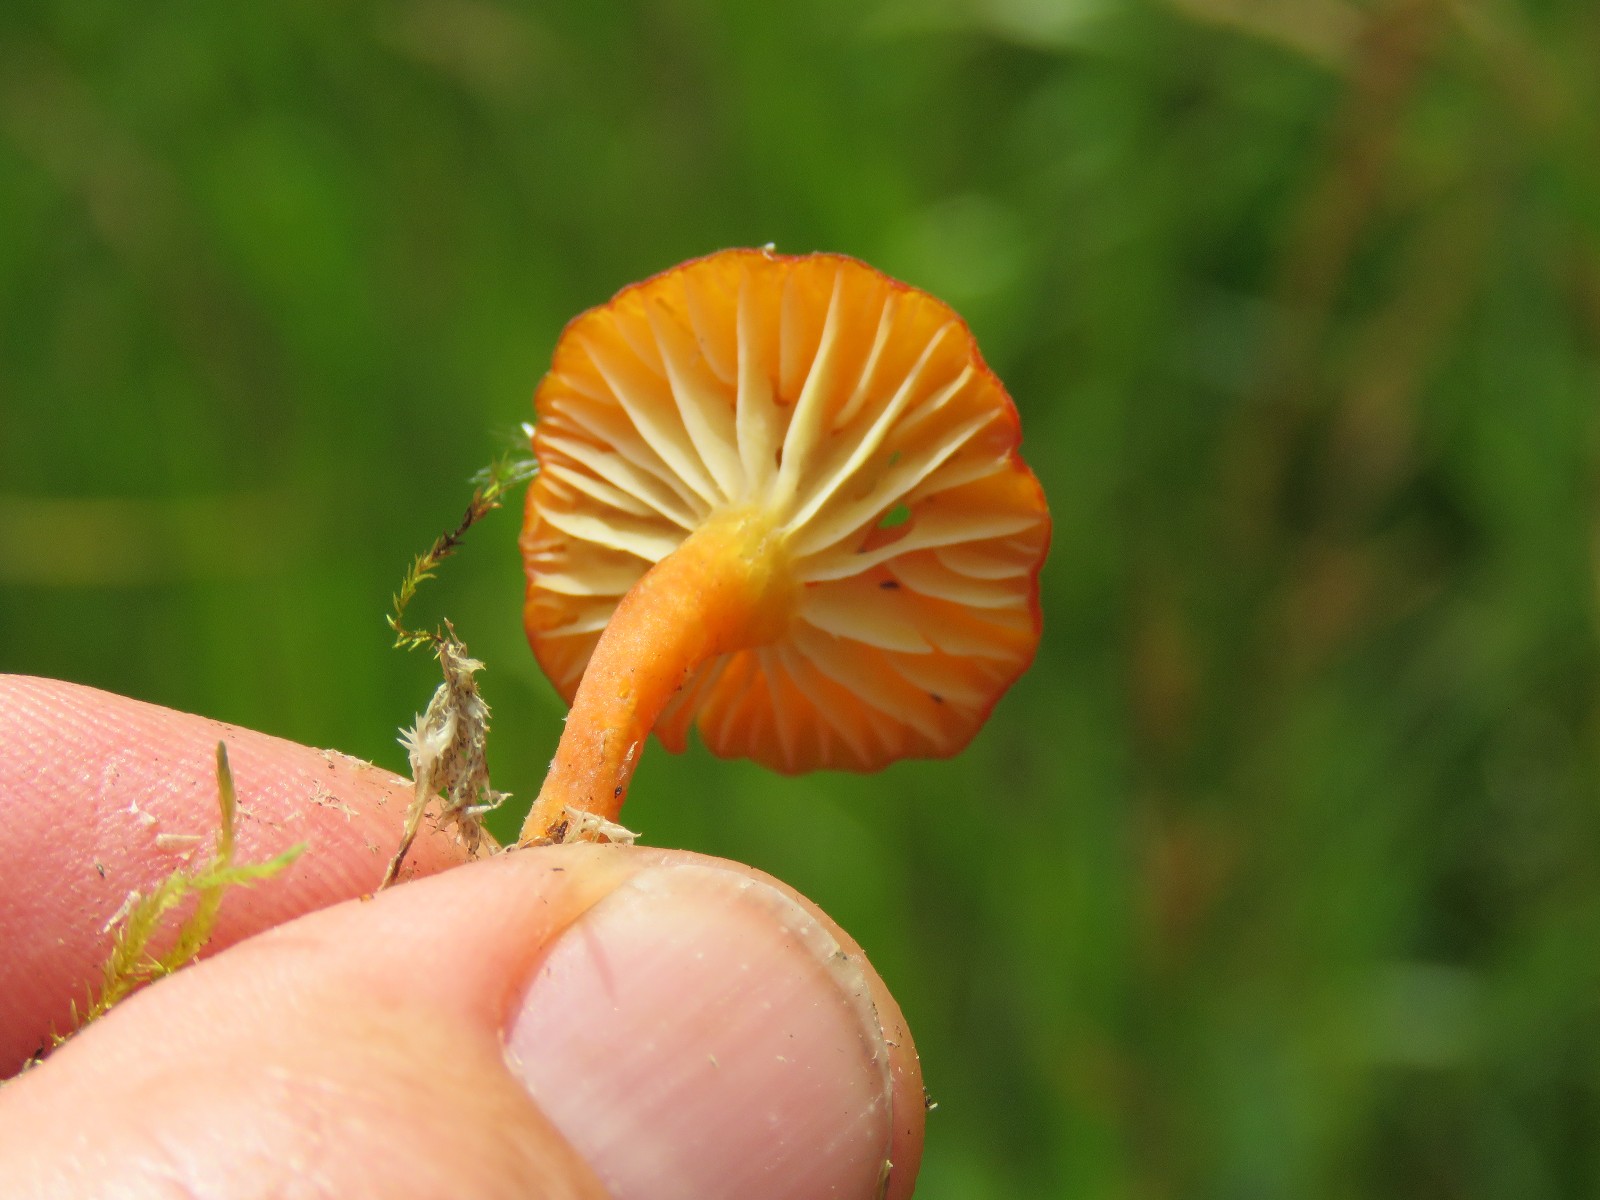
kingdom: Fungi
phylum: Basidiomycota
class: Agaricomycetes
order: Agaricales
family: Hygrophoraceae
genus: Hygrocybe
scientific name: Hygrocybe cantharellus
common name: kantarel-vokshat
